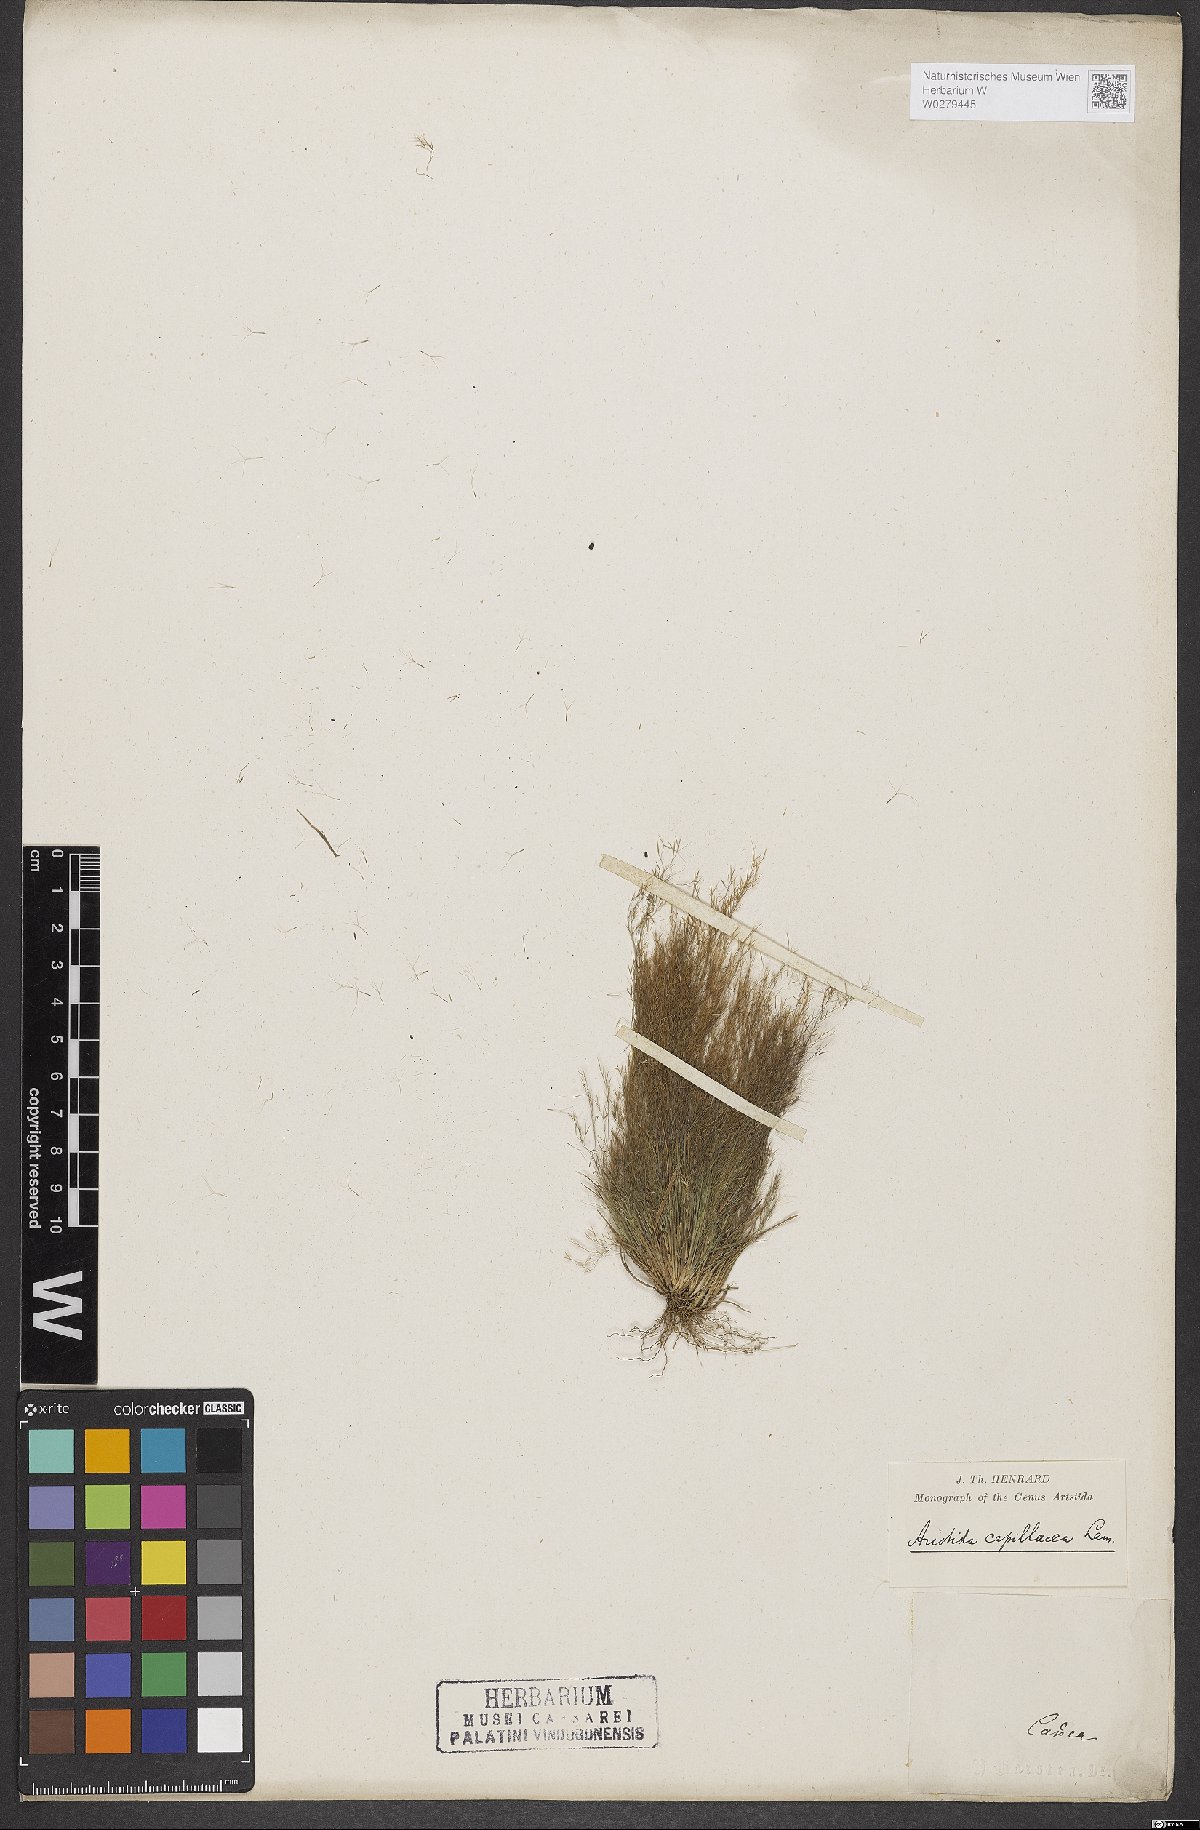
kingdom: Plantae
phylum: Tracheophyta
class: Liliopsida
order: Poales
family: Poaceae
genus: Aristida
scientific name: Aristida capillacea
